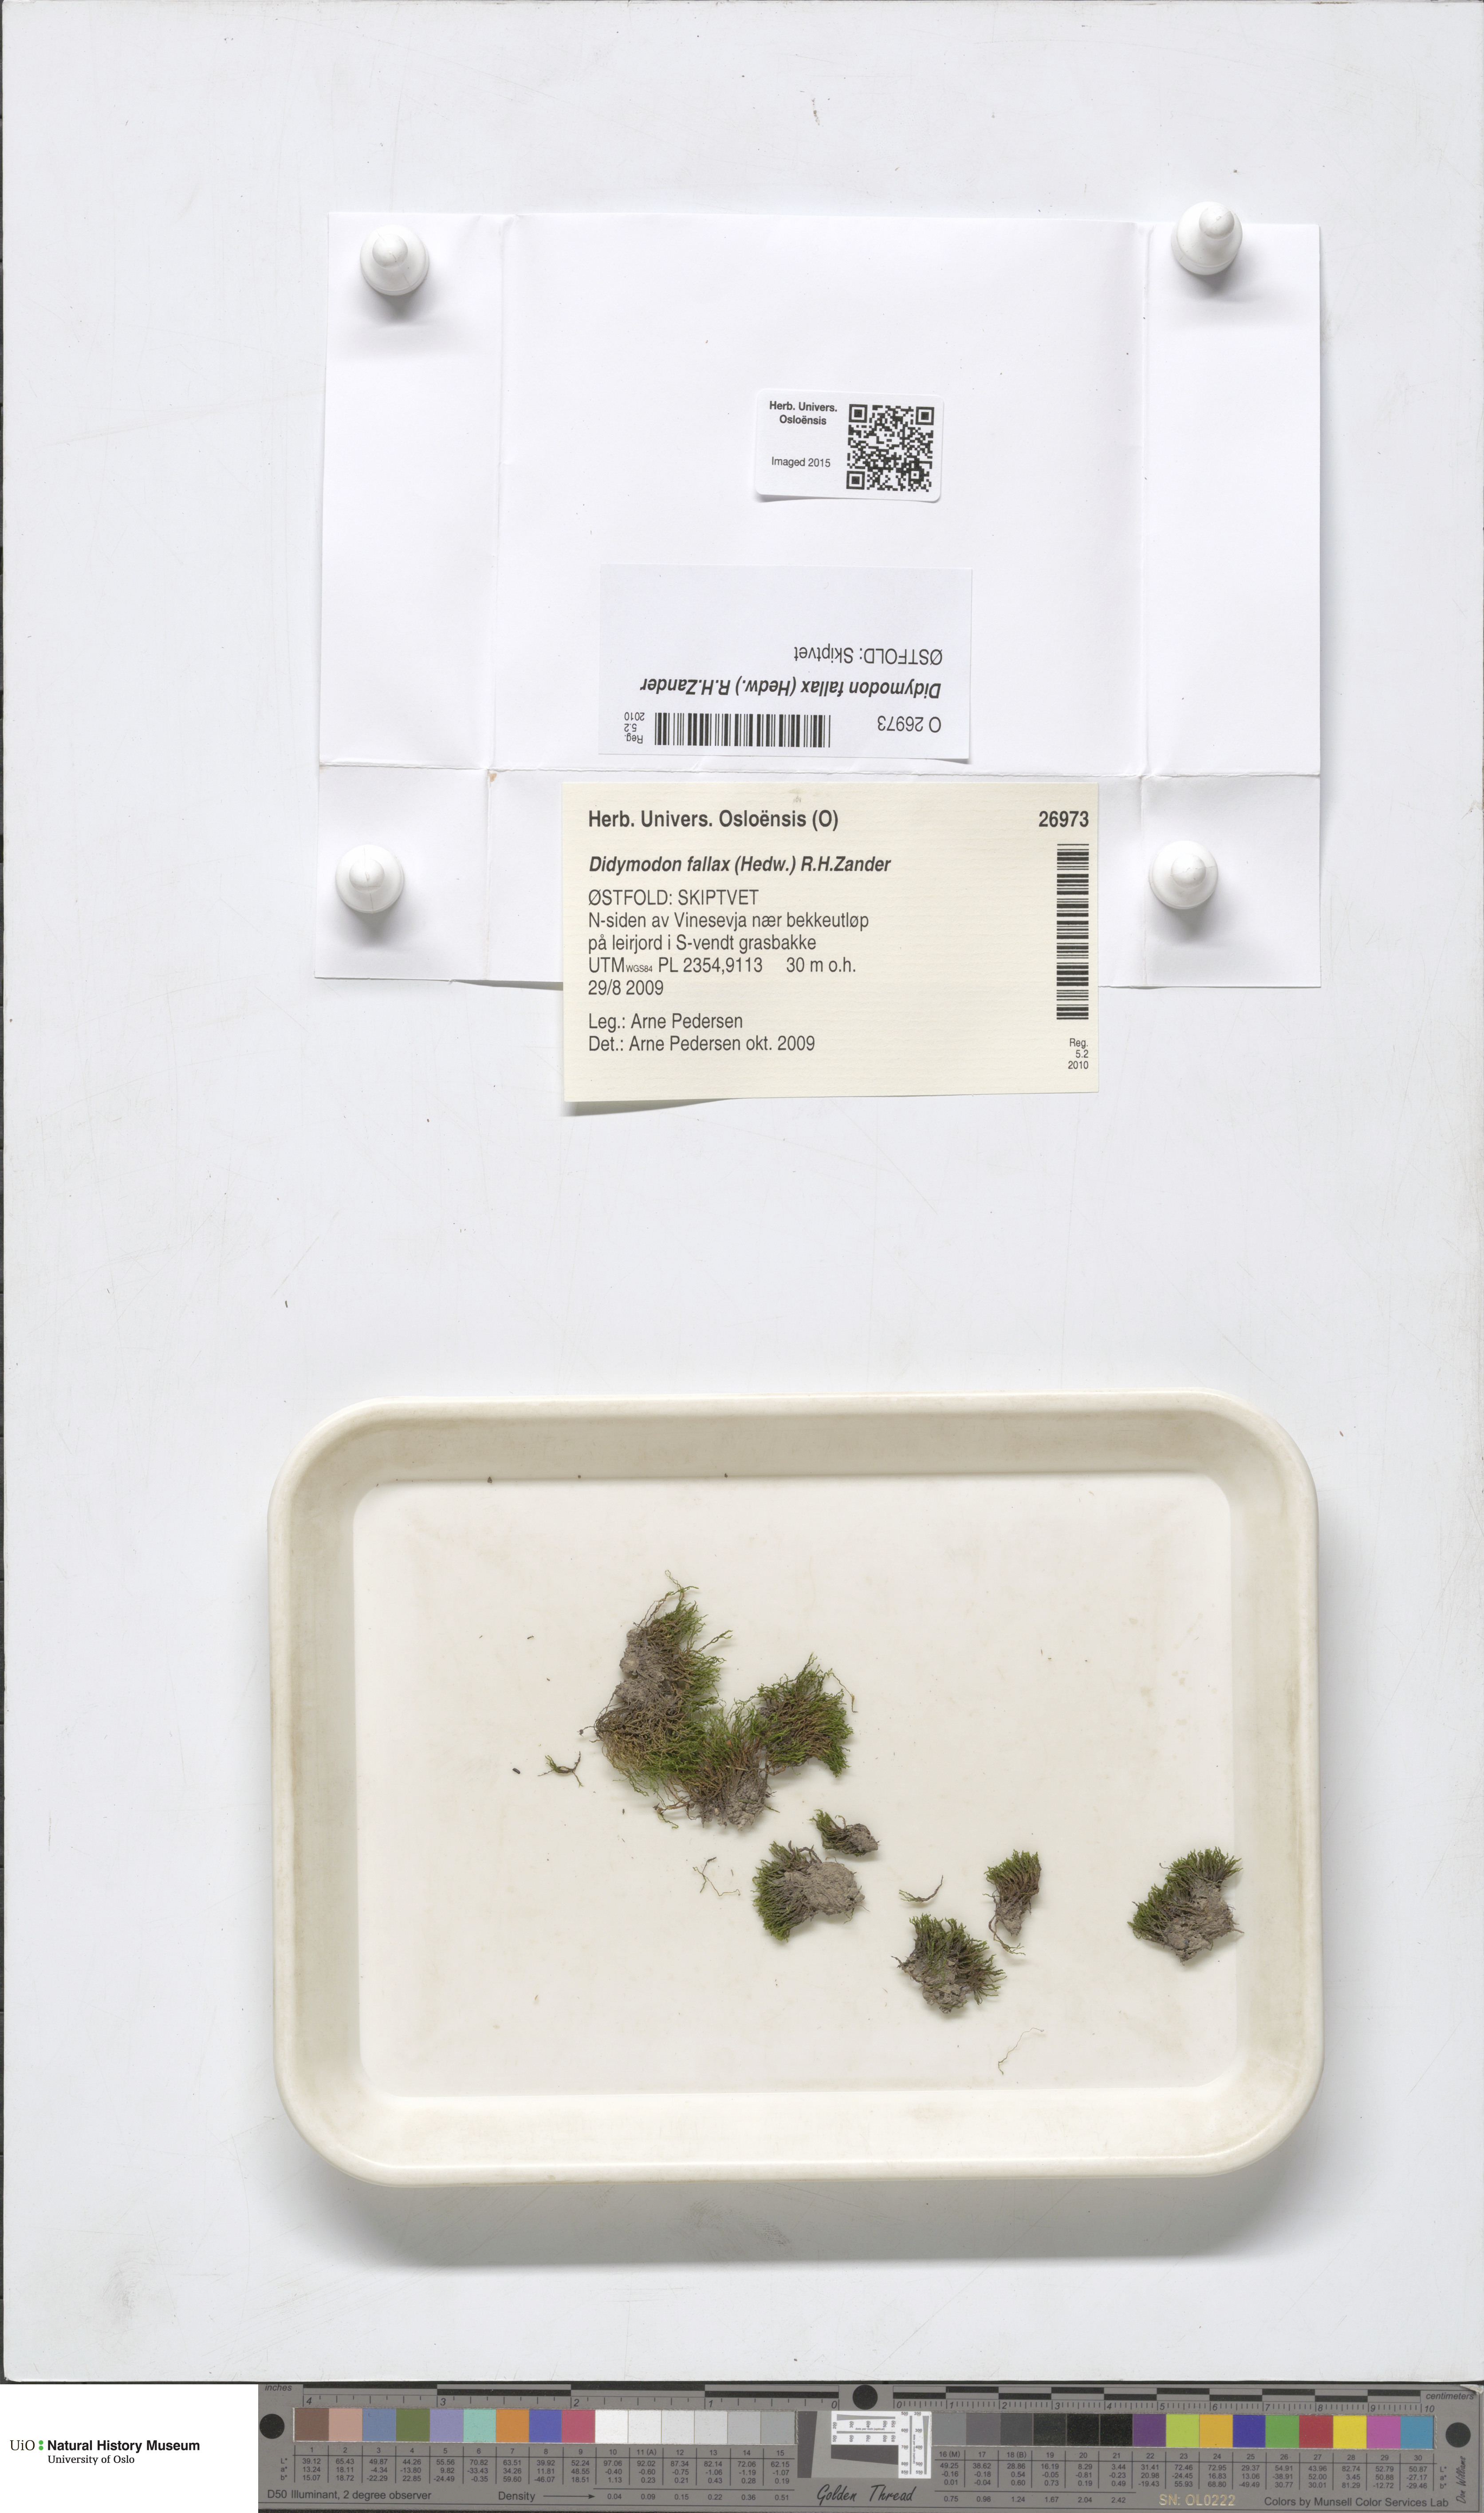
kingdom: Plantae
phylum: Bryophyta
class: Bryopsida
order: Pottiales
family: Pottiaceae
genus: Geheebia
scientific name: Geheebia fallax
